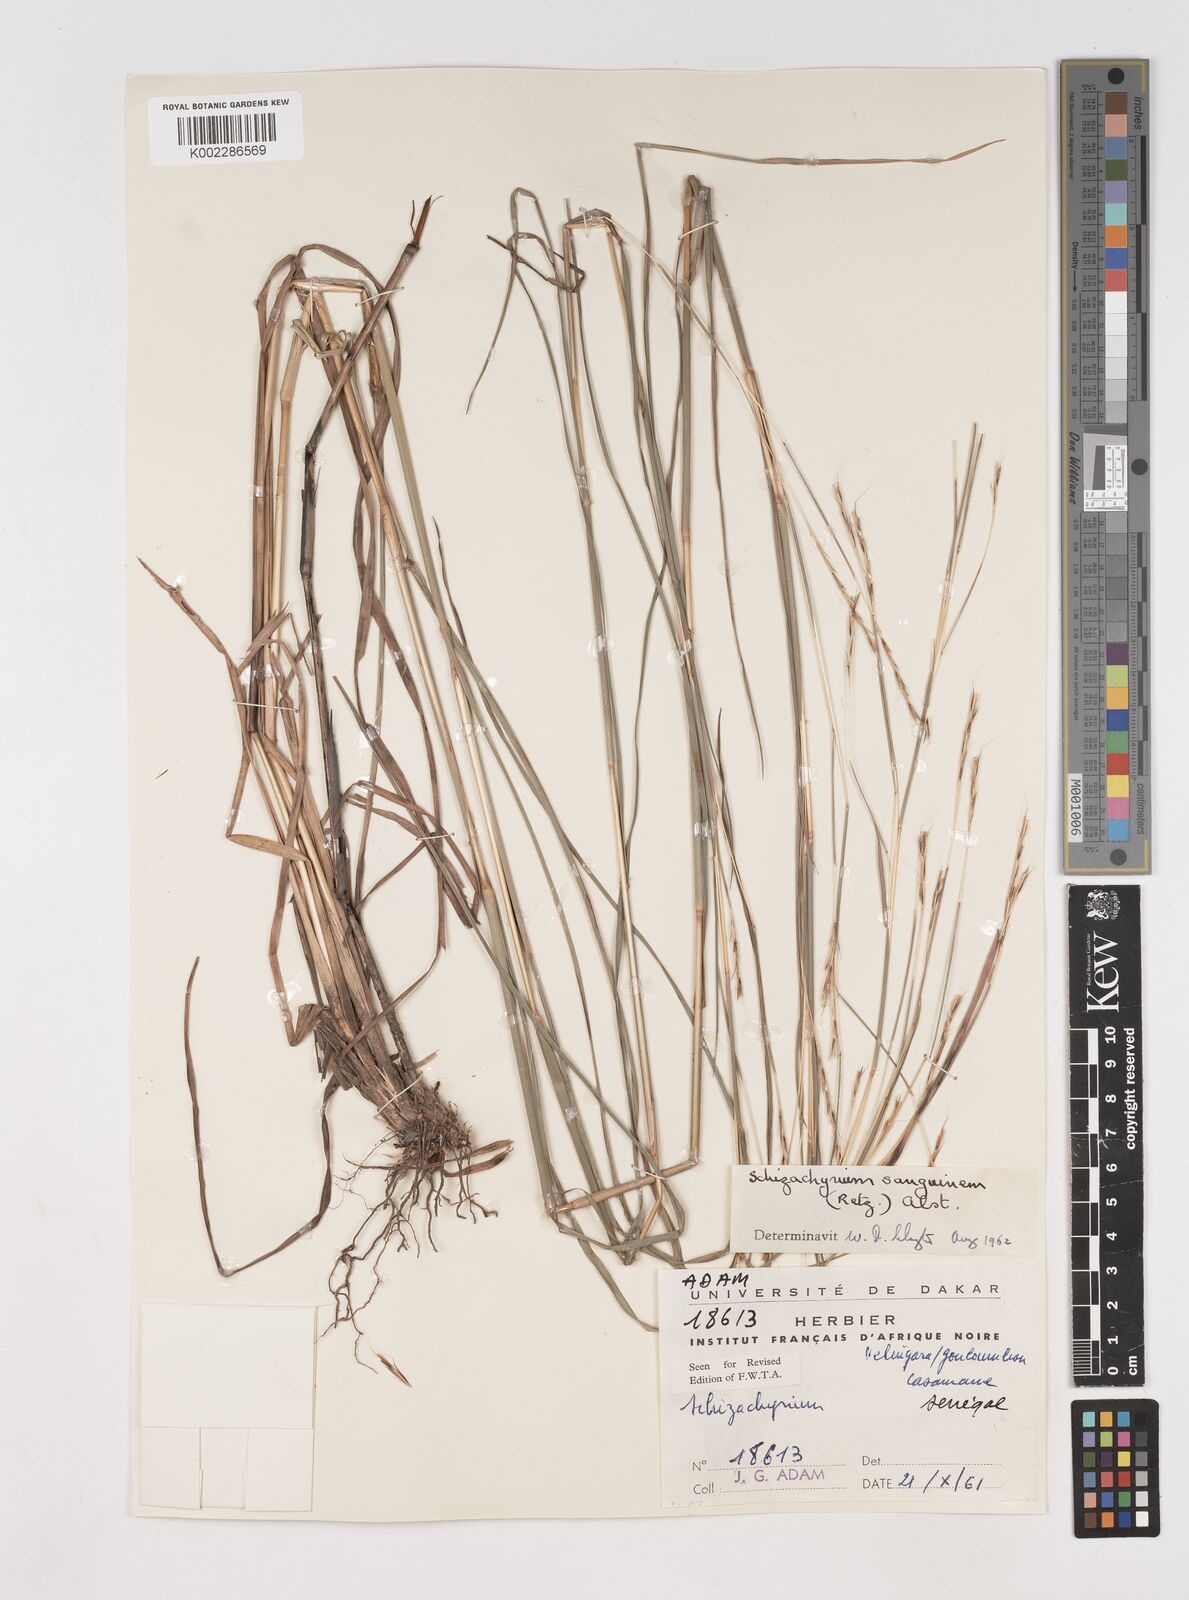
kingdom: Plantae
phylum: Tracheophyta
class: Liliopsida
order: Poales
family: Poaceae
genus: Schizachyrium
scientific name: Schizachyrium sanguineum
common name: Crimson bluestem
